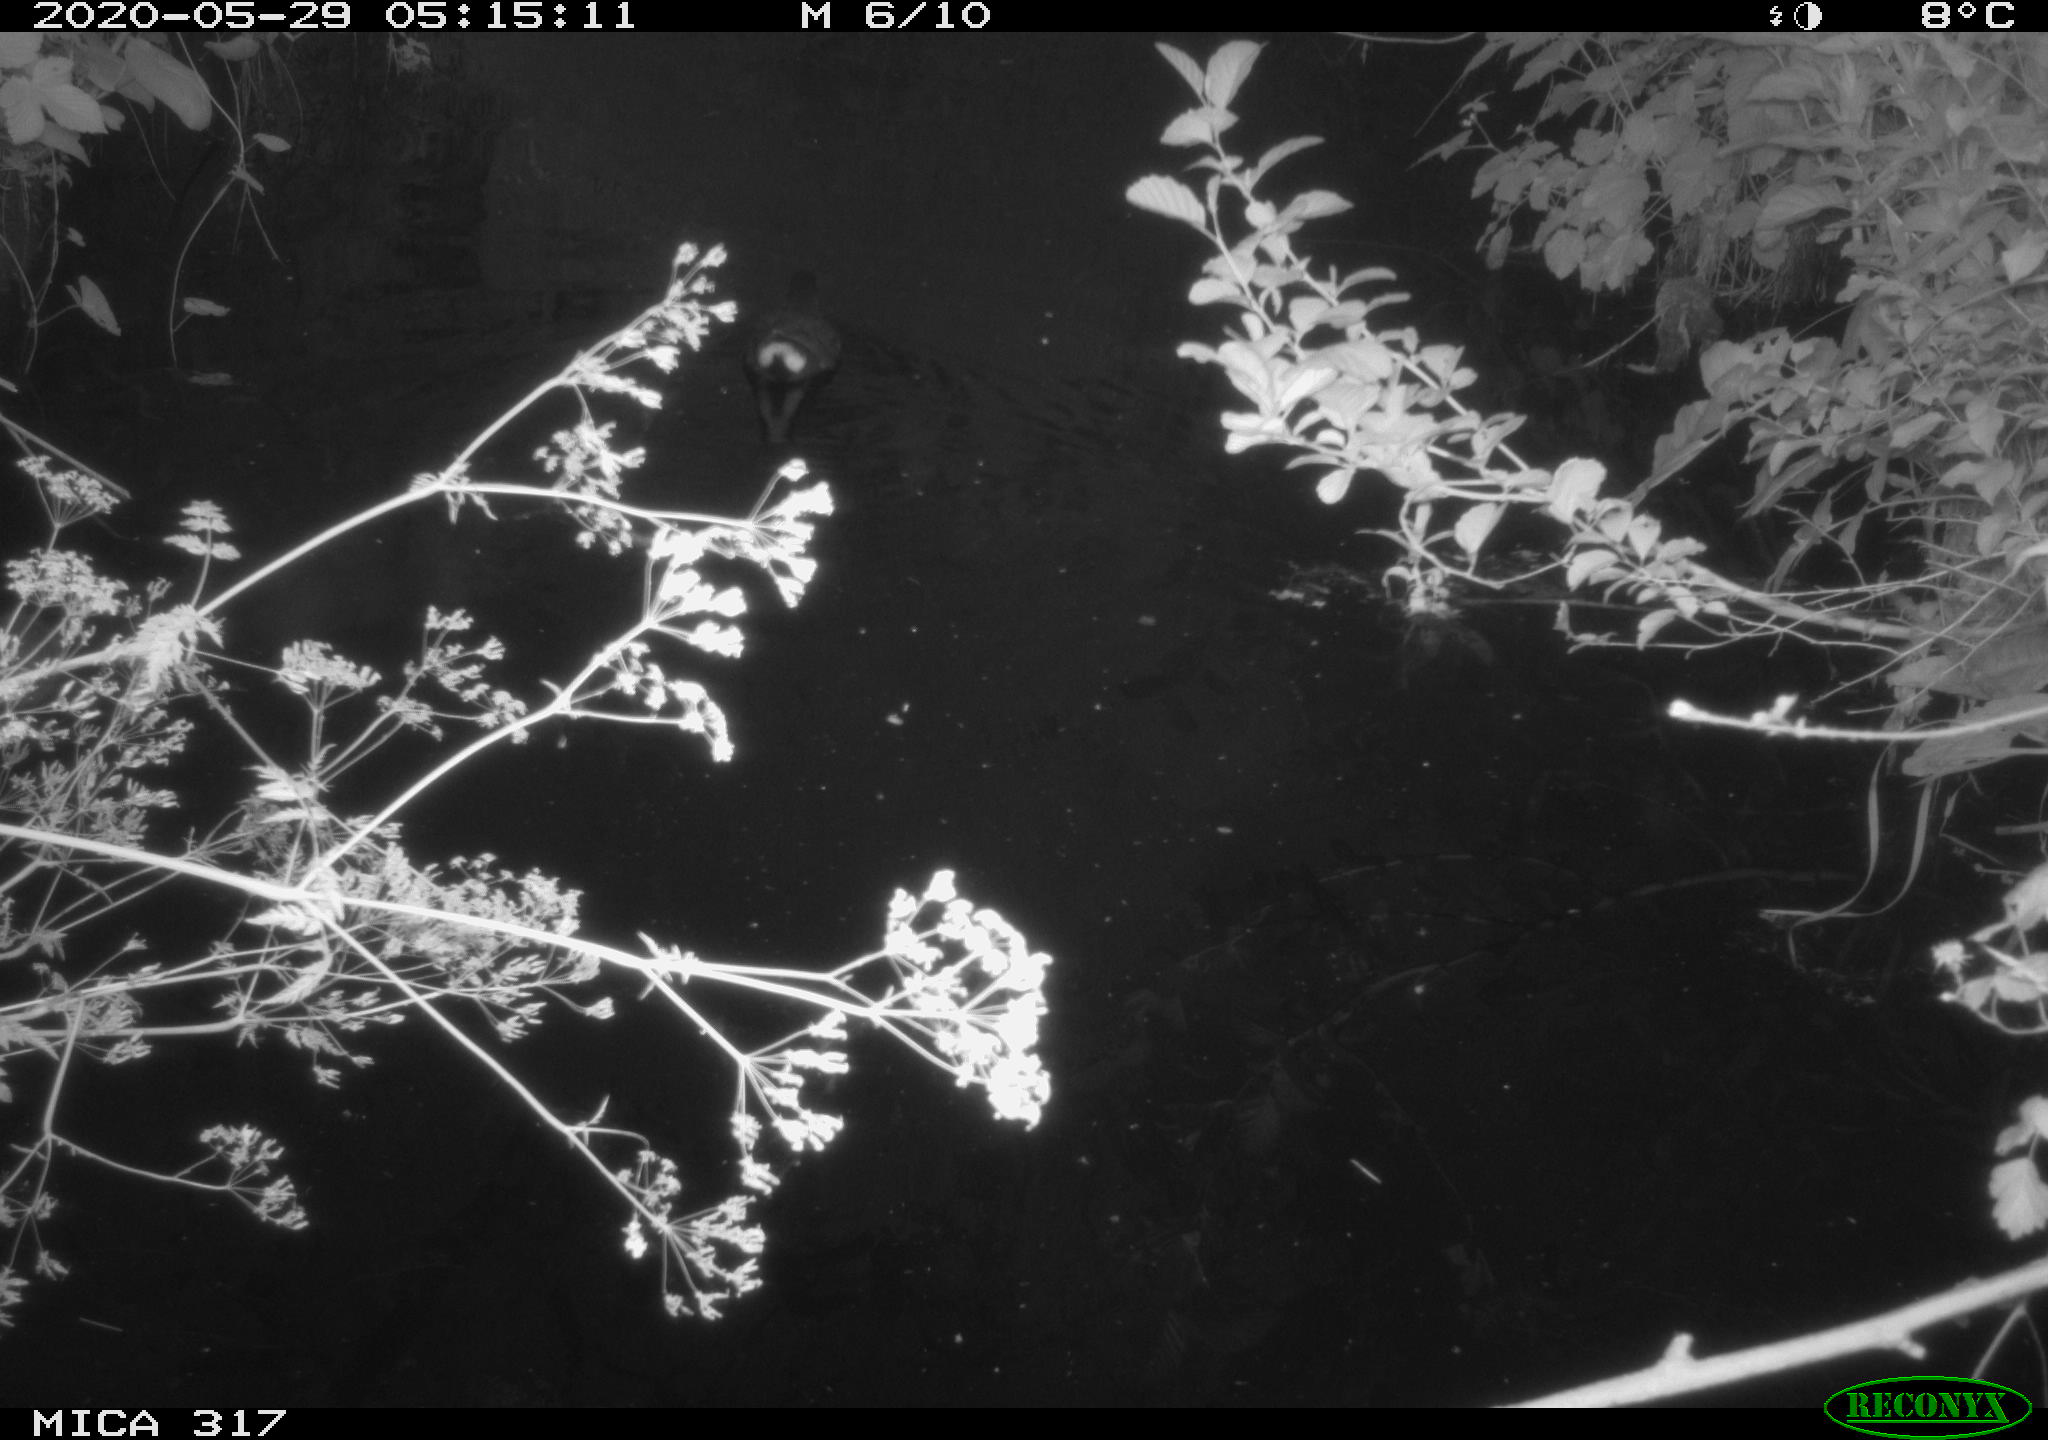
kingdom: Animalia
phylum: Chordata
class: Aves
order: Gruiformes
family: Rallidae
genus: Gallinula
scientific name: Gallinula chloropus
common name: Common moorhen
